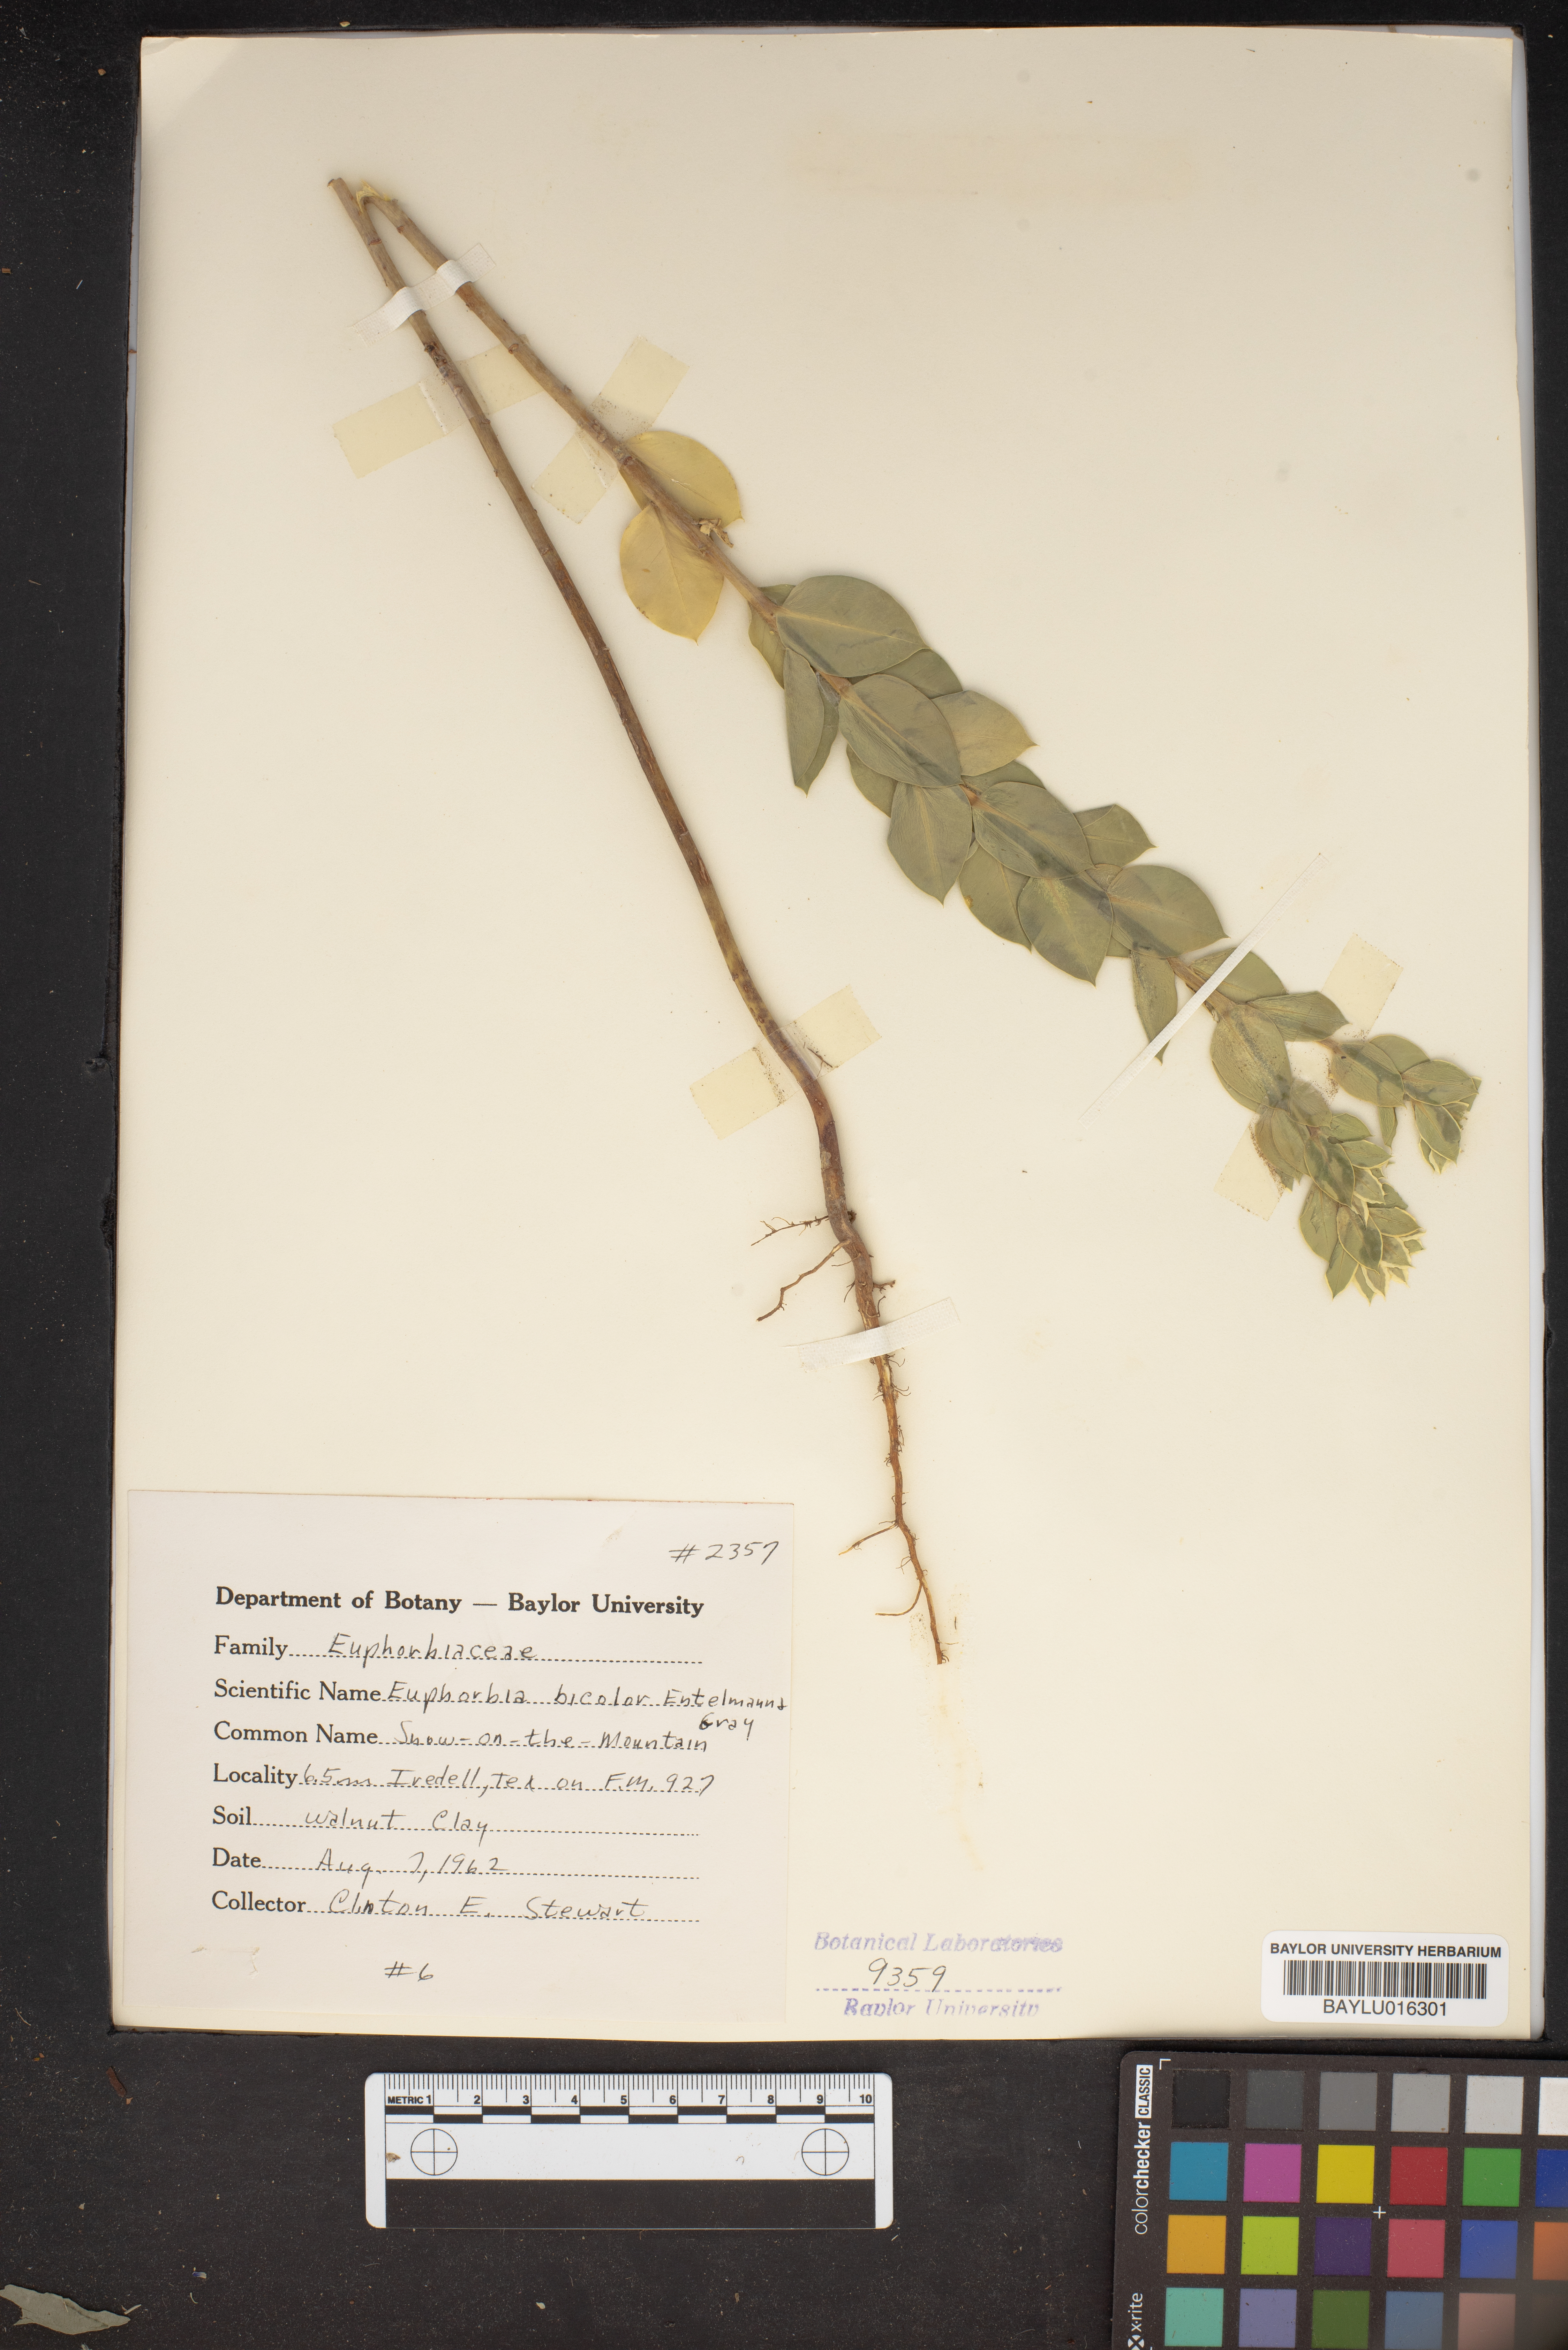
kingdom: Plantae
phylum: Tracheophyta
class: Magnoliopsida
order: Malpighiales
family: Euphorbiaceae
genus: Euphorbia
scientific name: Euphorbia bicolor
